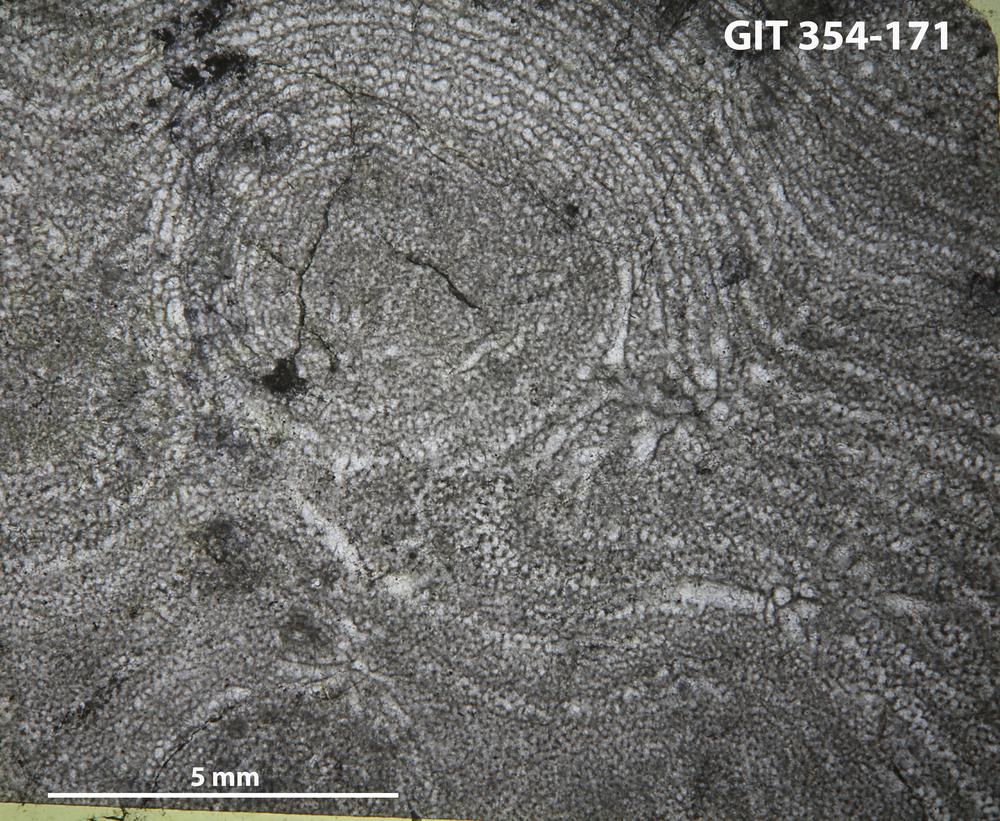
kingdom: Animalia
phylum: Porifera
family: Clathrodictyidae
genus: Clathrodictyon
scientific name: Clathrodictyon kudriavzevi
